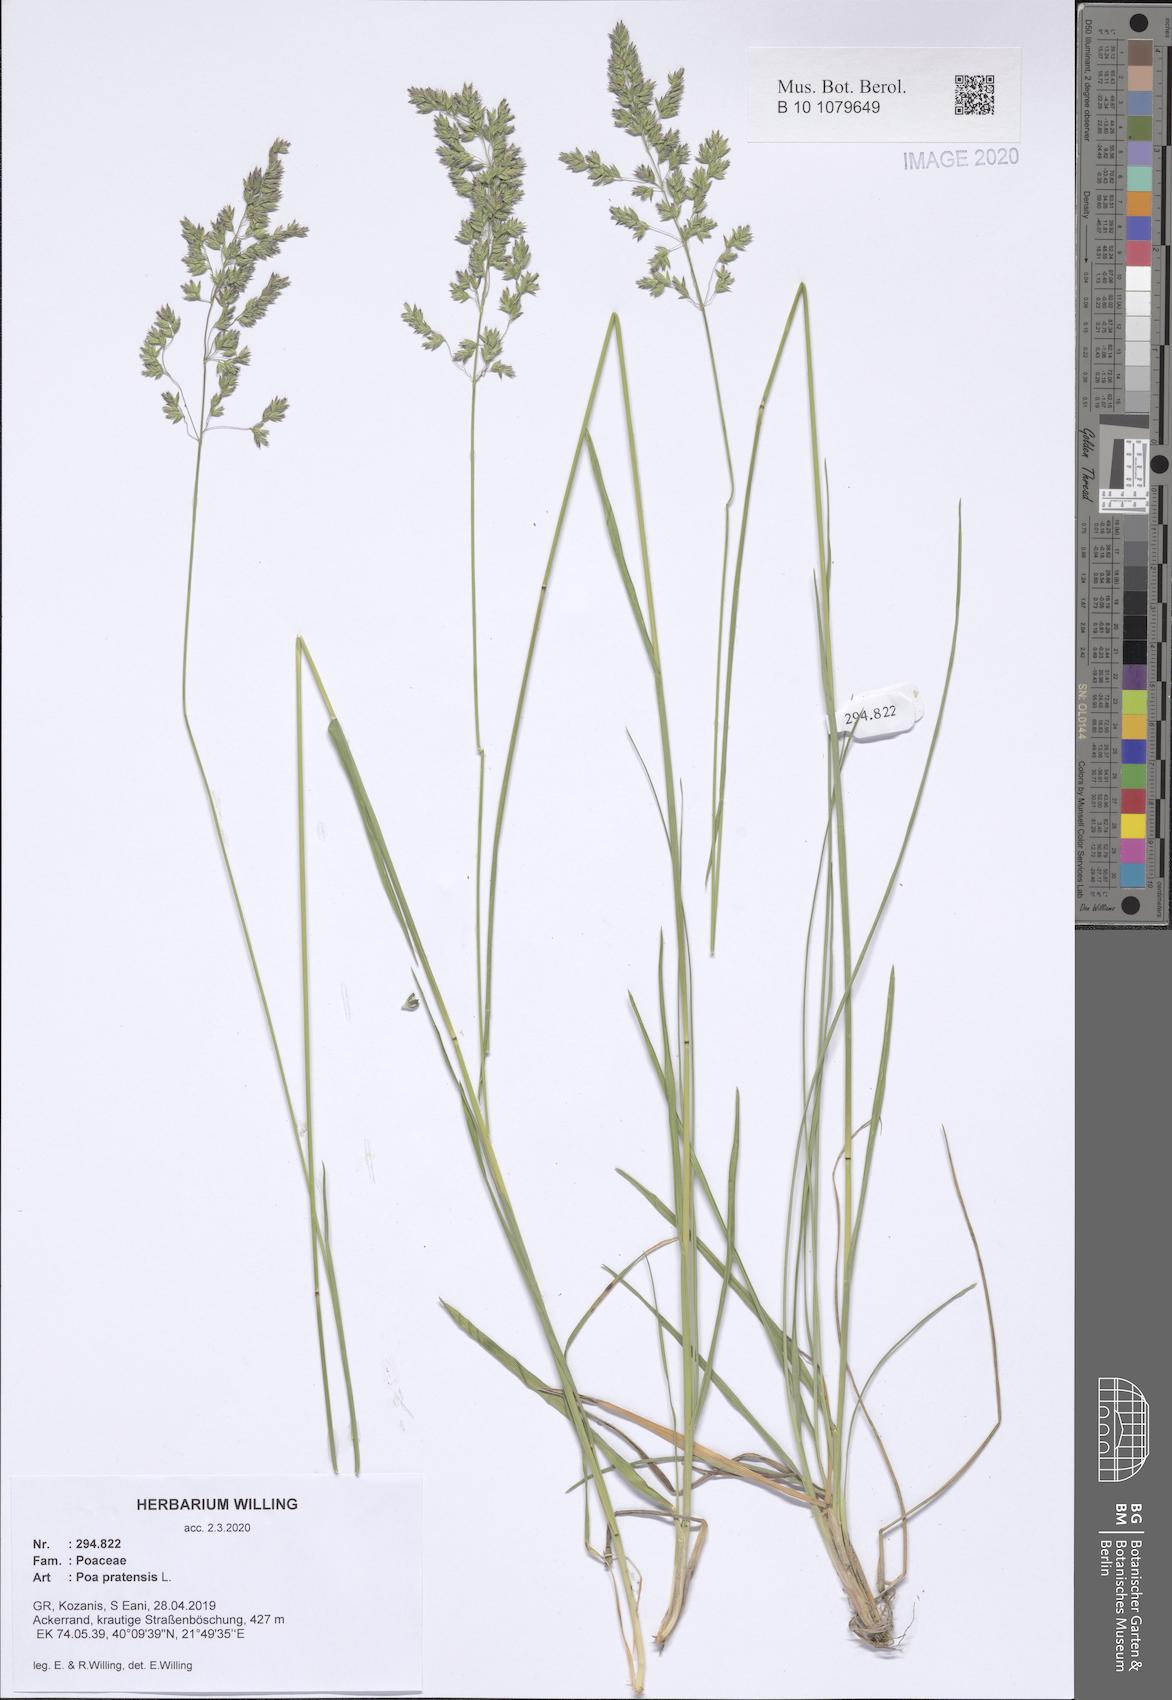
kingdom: Plantae
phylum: Tracheophyta
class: Liliopsida
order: Poales
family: Poaceae
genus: Poa
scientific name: Poa pratensis
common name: Kentucky bluegrass
